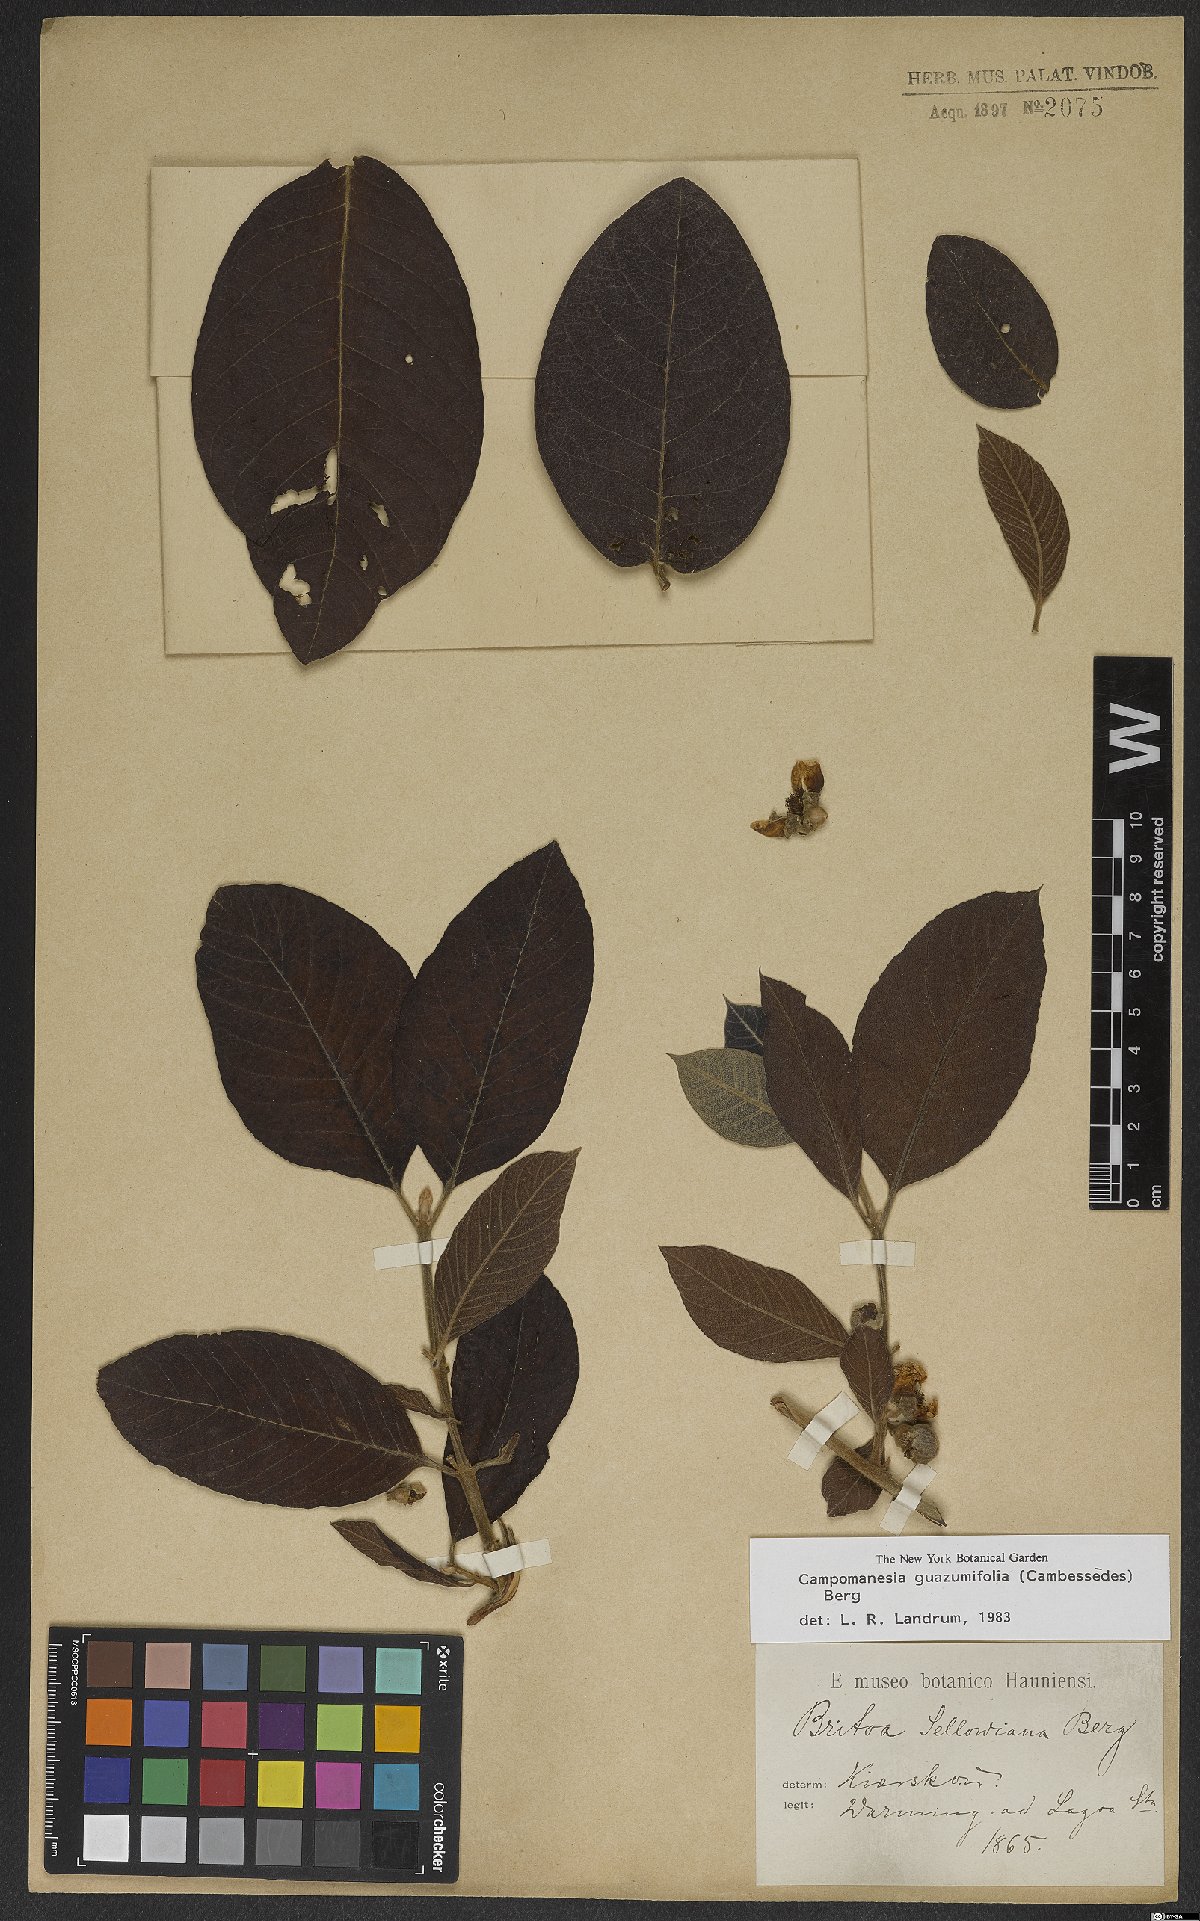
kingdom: Plantae
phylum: Tracheophyta
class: Magnoliopsida
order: Myrtales
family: Myrtaceae
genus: Campomanesia
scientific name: Campomanesia guazumifolia
